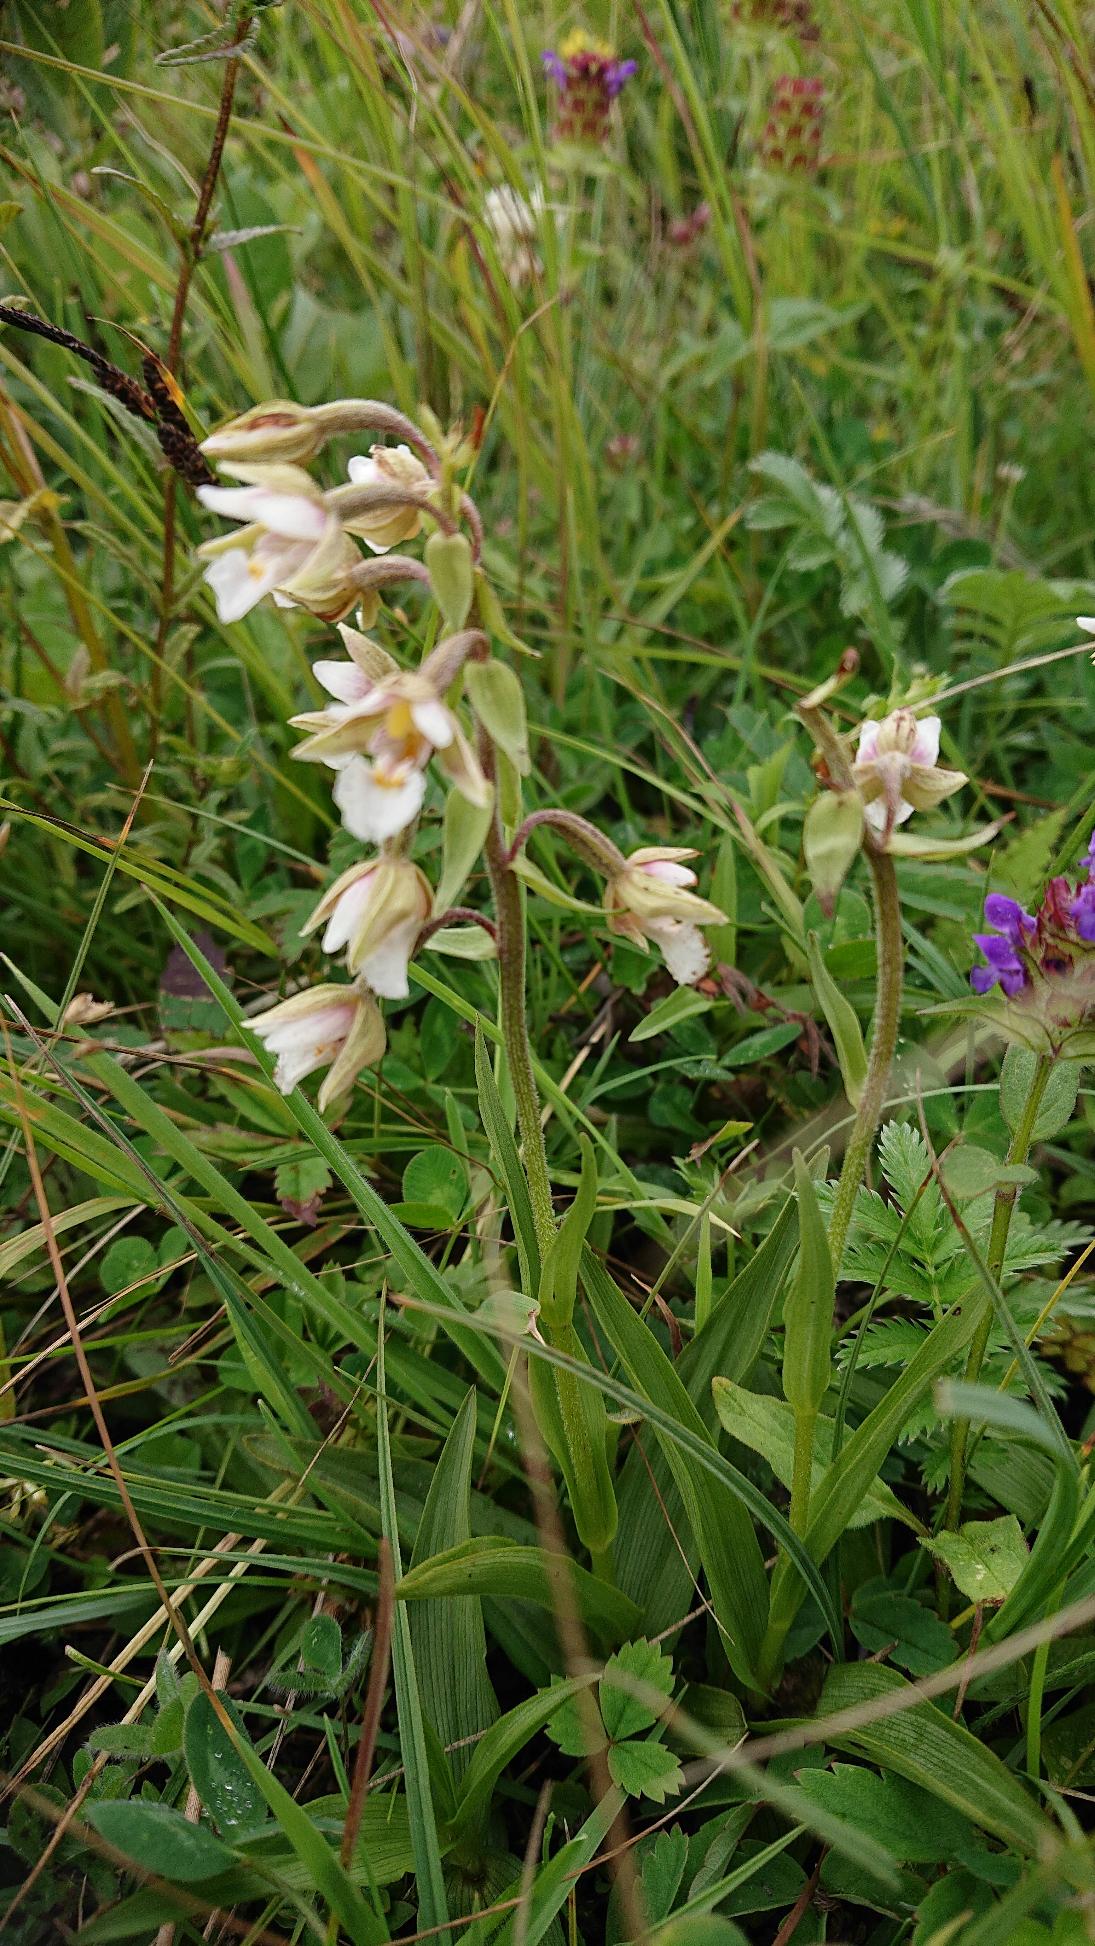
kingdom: Plantae
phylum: Tracheophyta
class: Liliopsida
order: Asparagales
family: Orchidaceae
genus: Epipactis
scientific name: Epipactis palustris
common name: Sump-hullæbe
